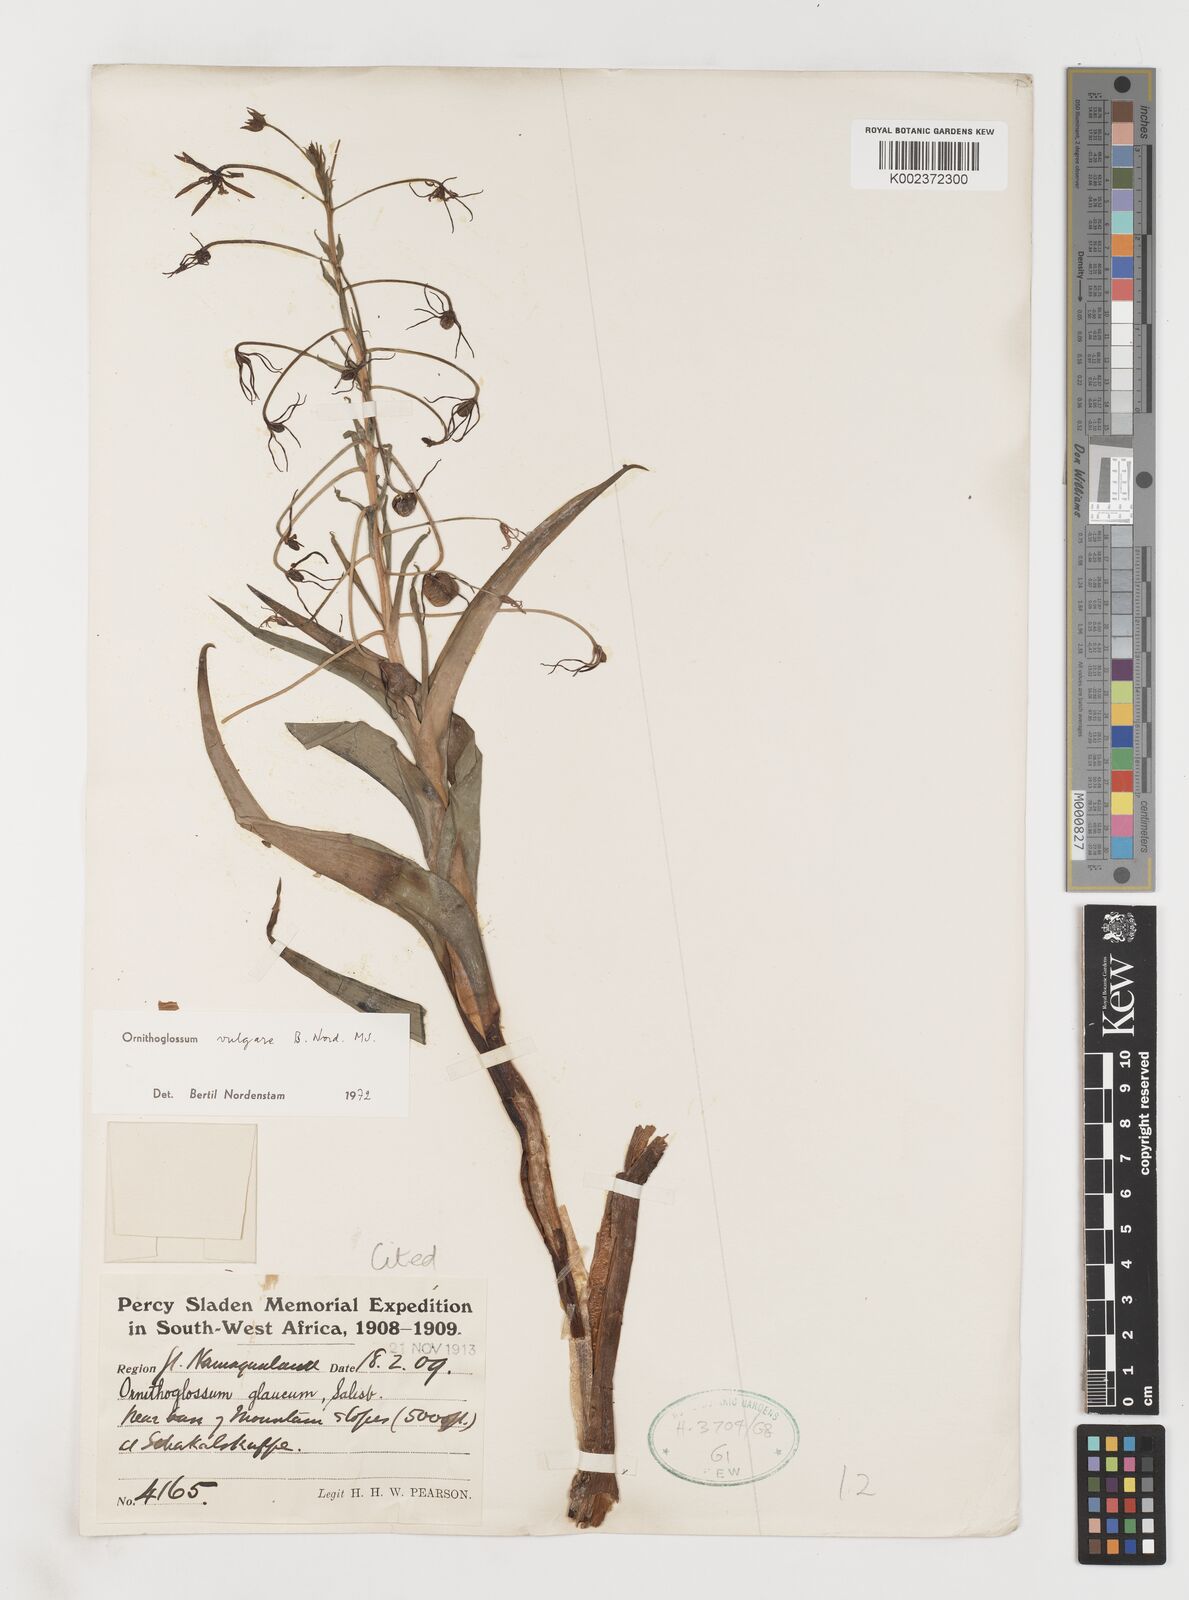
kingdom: Plantae
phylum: Tracheophyta
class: Liliopsida
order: Liliales
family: Colchicaceae
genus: Ornithoglossum
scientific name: Ornithoglossum vulgare
